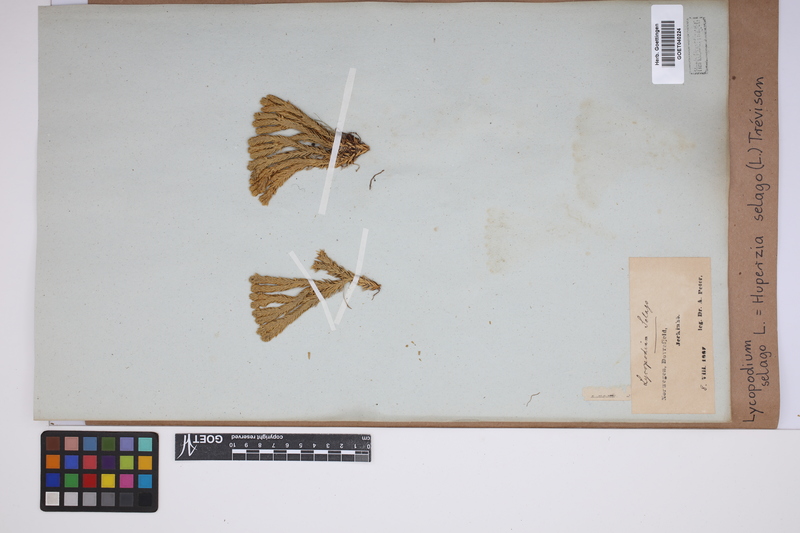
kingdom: Plantae
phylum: Tracheophyta
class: Lycopodiopsida
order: Lycopodiales
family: Lycopodiaceae
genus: Huperzia
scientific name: Huperzia selago
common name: Northern firmoss
